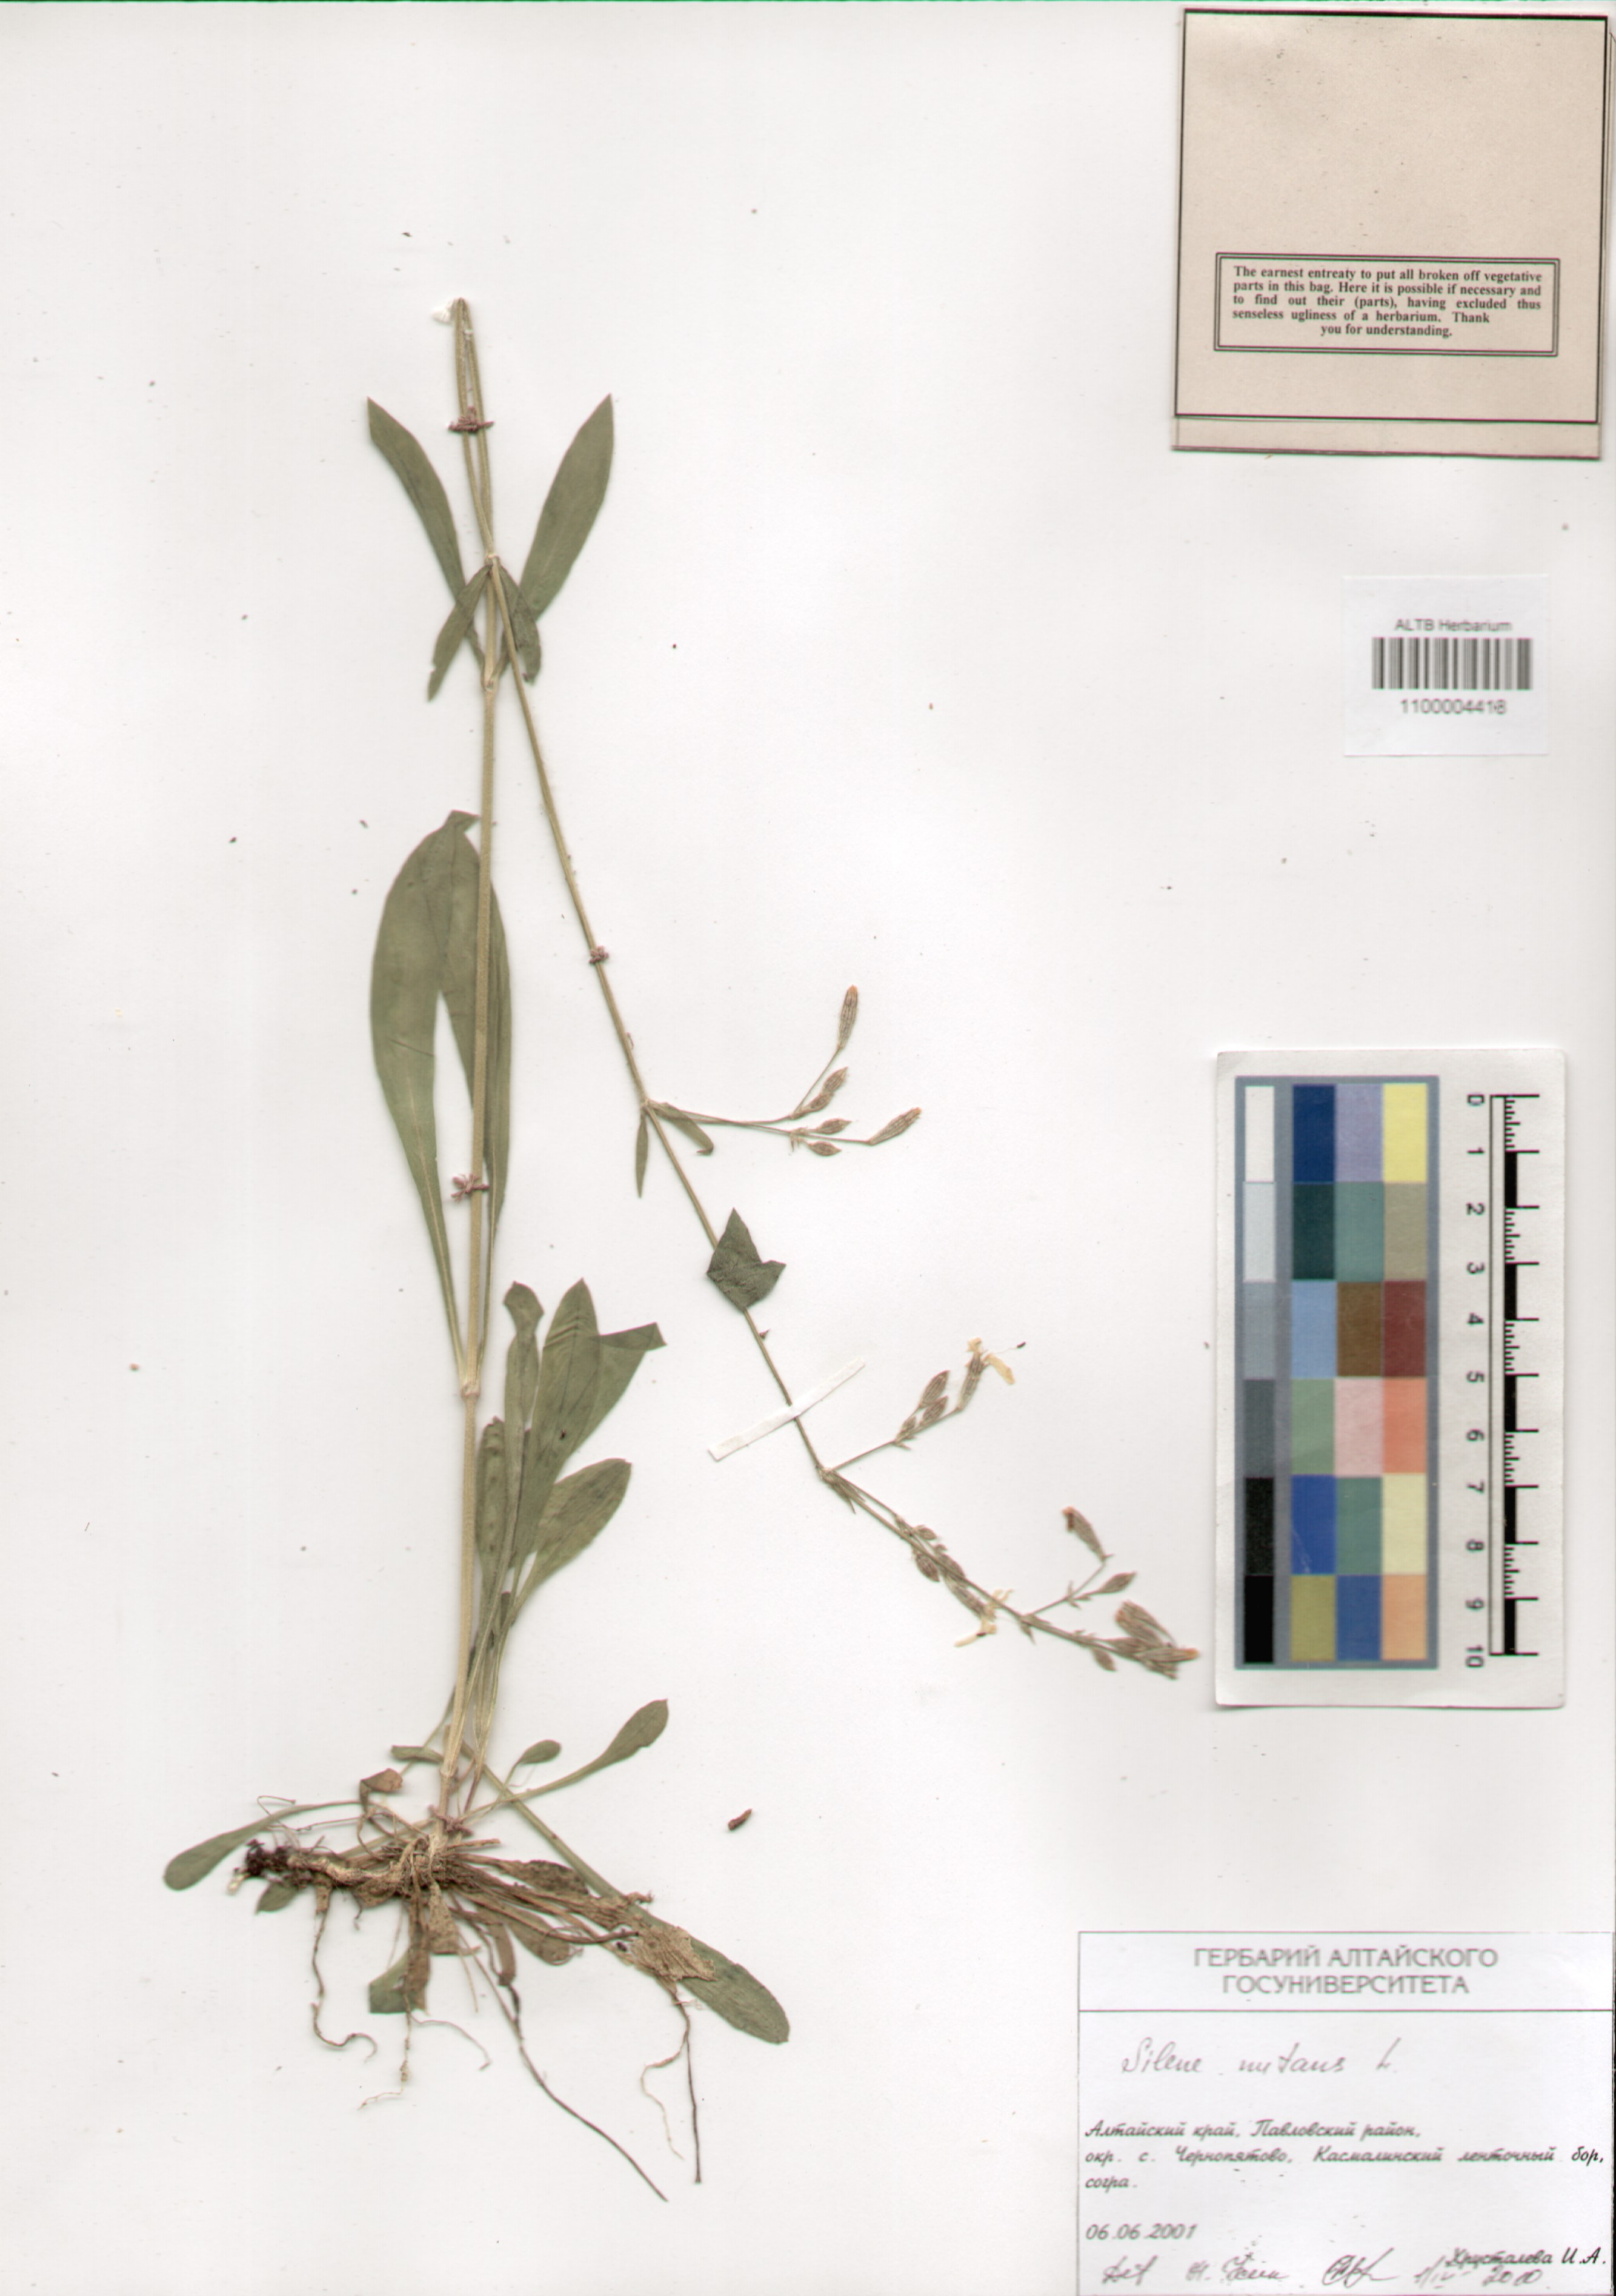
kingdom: Plantae
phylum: Tracheophyta
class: Magnoliopsida
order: Caryophyllales
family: Caryophyllaceae
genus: Silene
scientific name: Silene nutans
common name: Nottingham catchfly
